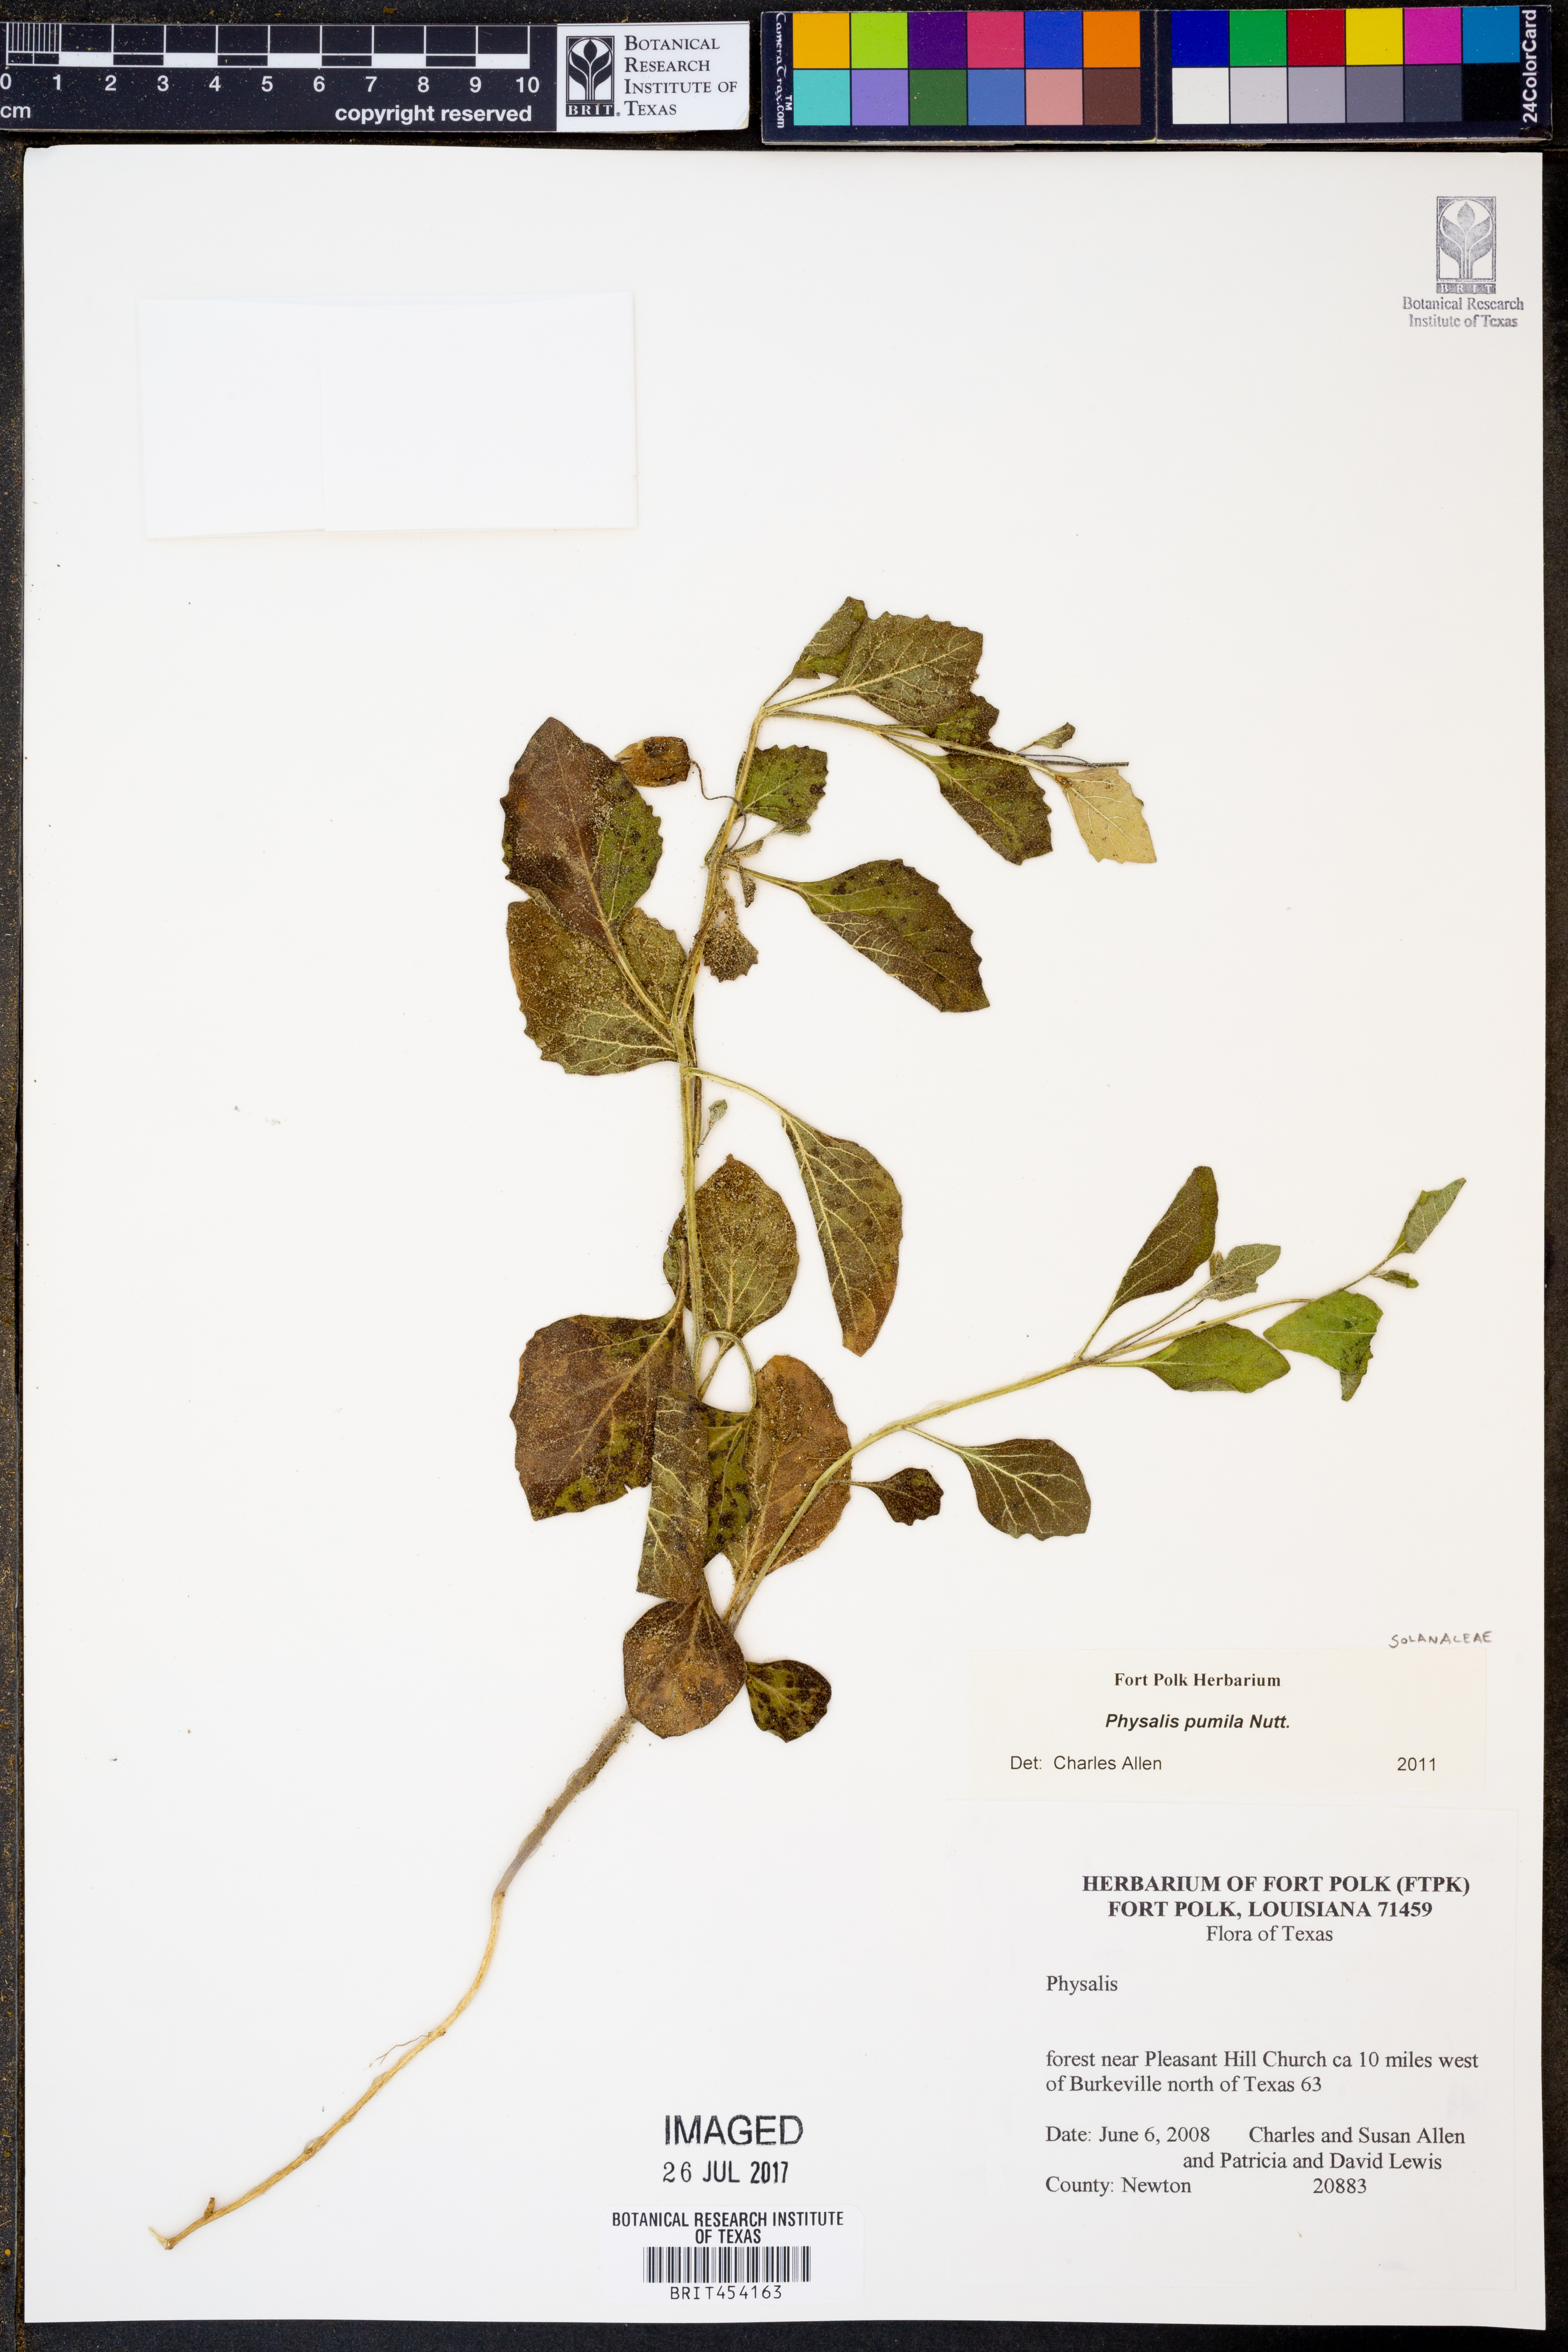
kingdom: Plantae
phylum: Tracheophyta
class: Magnoliopsida
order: Solanales
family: Solanaceae
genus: Physalis
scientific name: Physalis pumila
